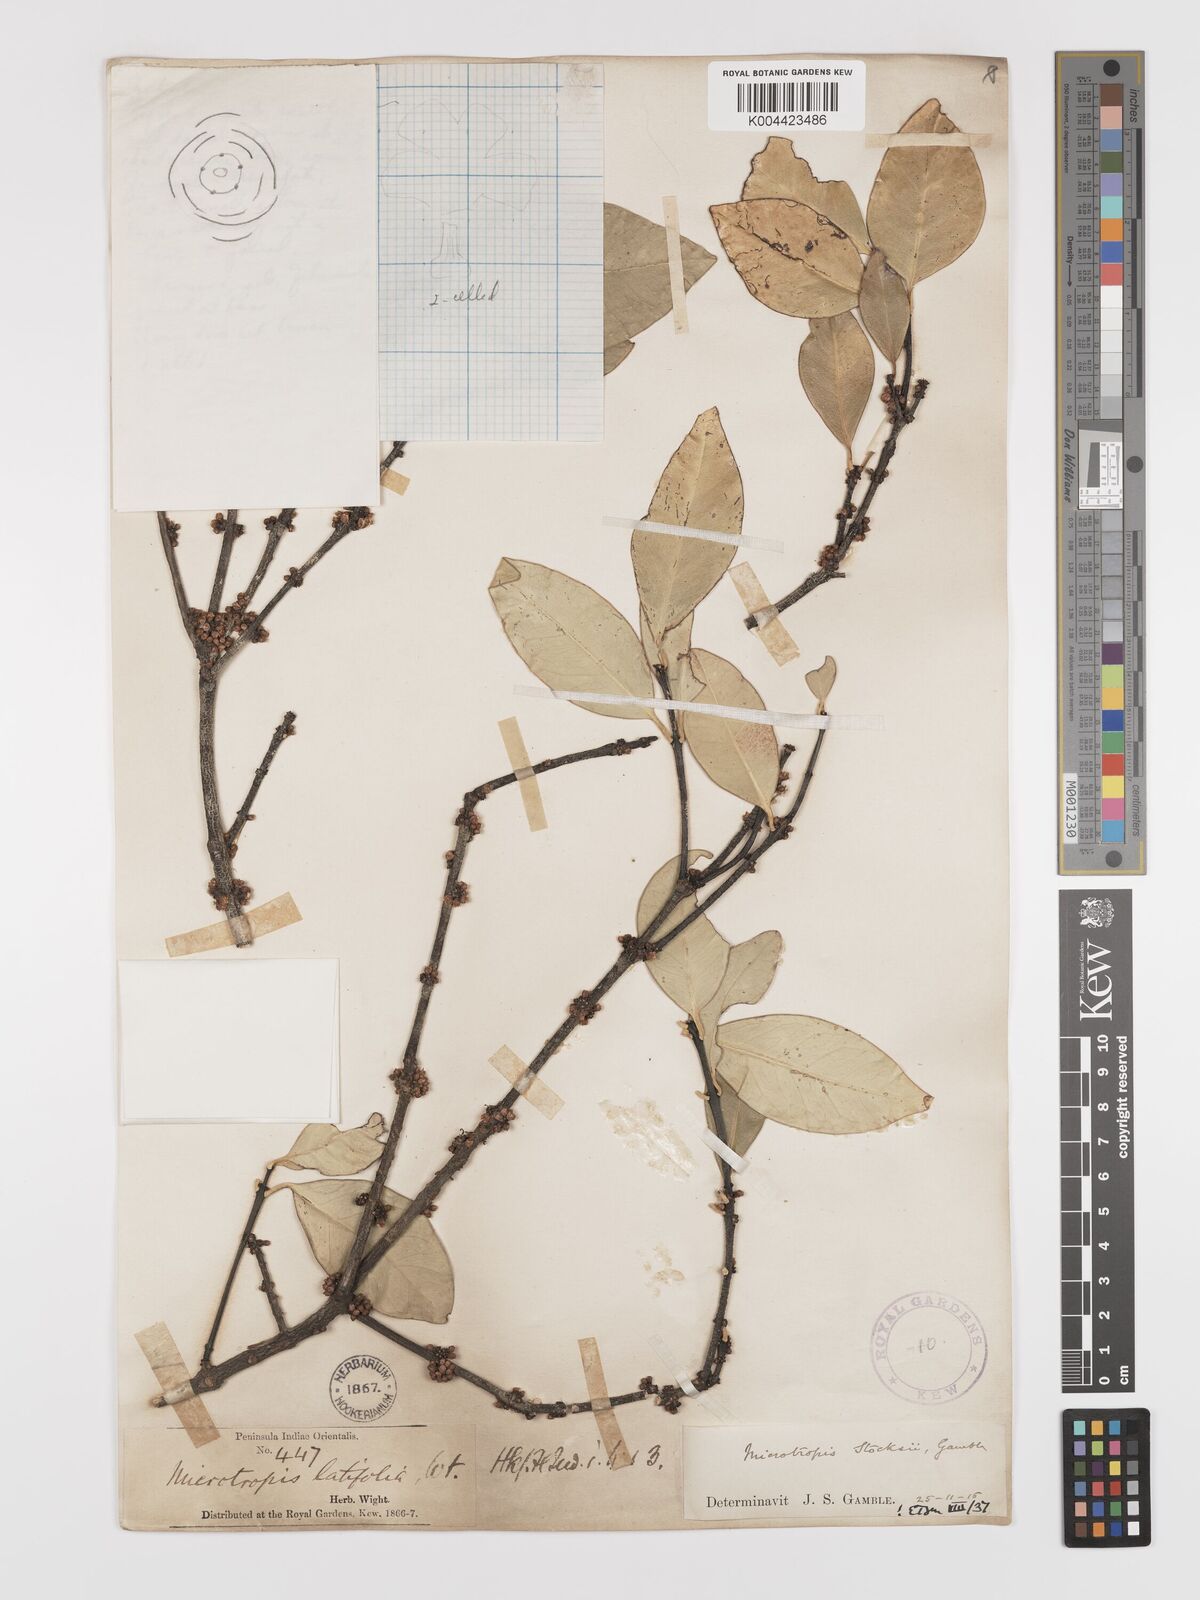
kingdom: Plantae
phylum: Tracheophyta
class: Magnoliopsida
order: Celastrales
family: Celastraceae
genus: Microtropis
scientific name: Microtropis stocksii
